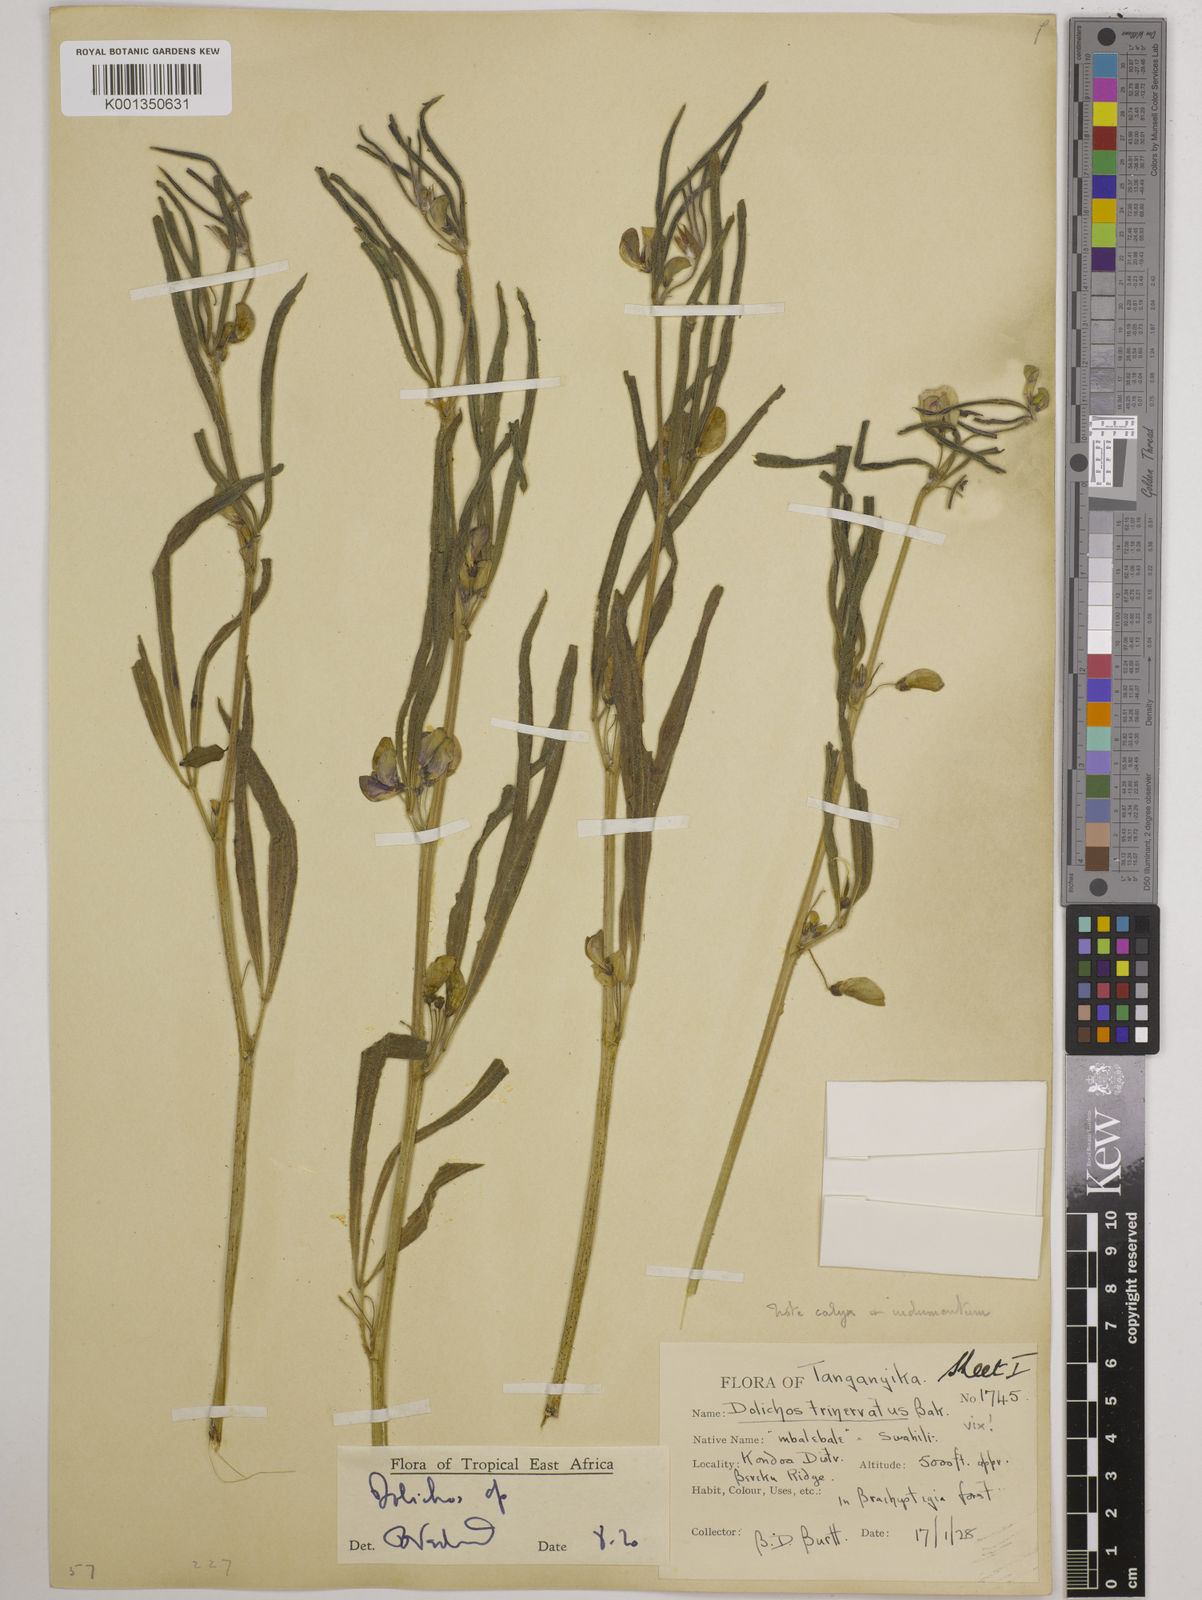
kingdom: Plantae
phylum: Tracheophyta
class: Magnoliopsida
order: Fabales
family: Fabaceae
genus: Dolichos
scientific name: Dolichos trinervatus
